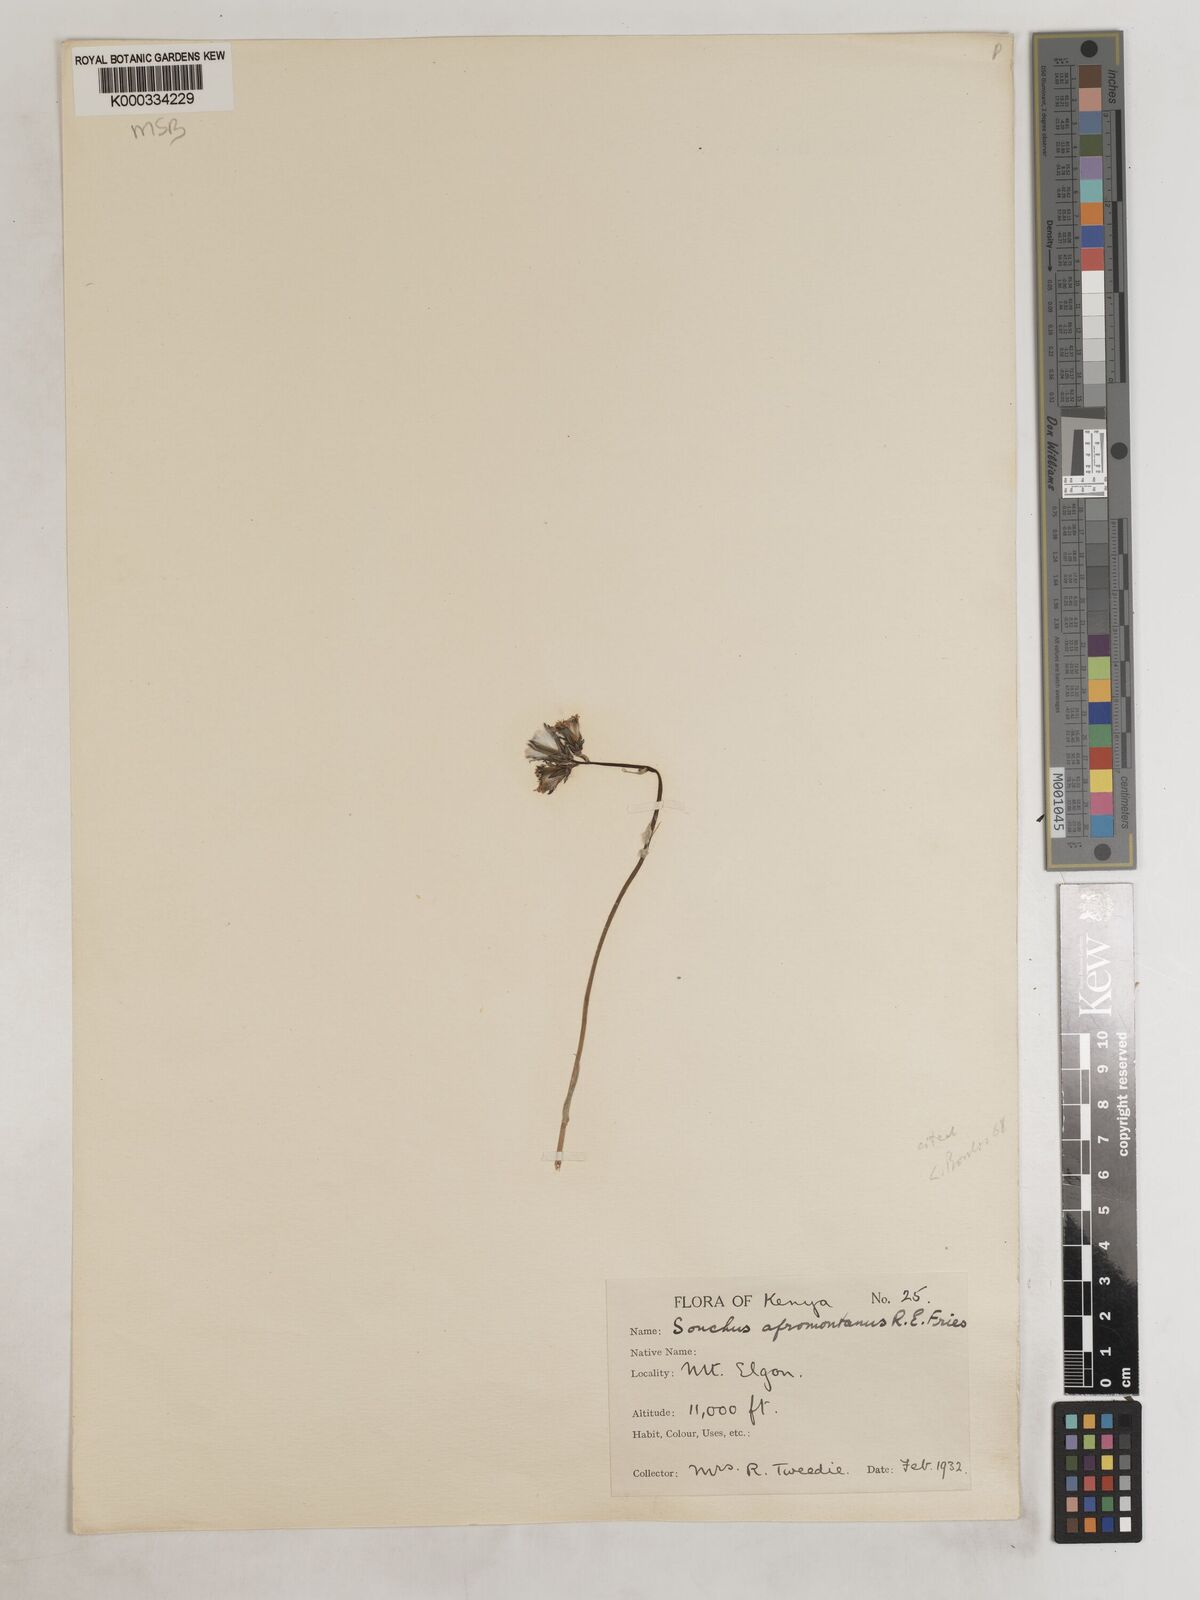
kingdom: Plantae
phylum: Tracheophyta
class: Magnoliopsida
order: Asterales
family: Asteraceae
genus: Sonchus
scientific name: Sonchus afromontanus
